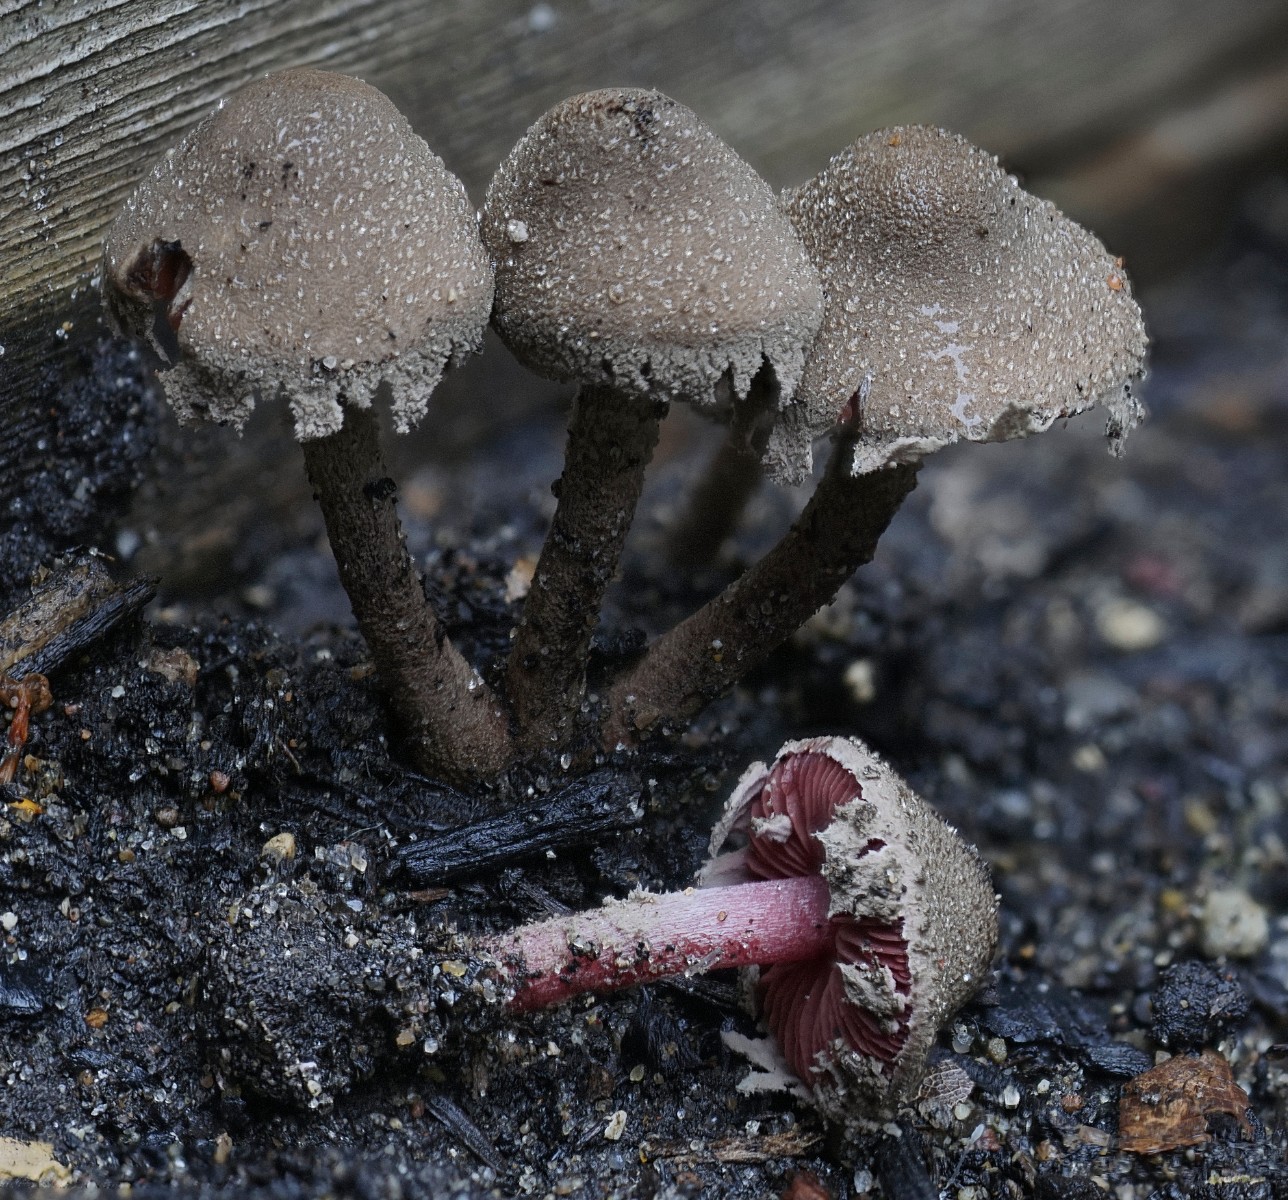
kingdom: Fungi
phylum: Basidiomycota
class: Agaricomycetes
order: Agaricales
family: Agaricaceae
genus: Melanophyllum
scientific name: Melanophyllum haematospermum
